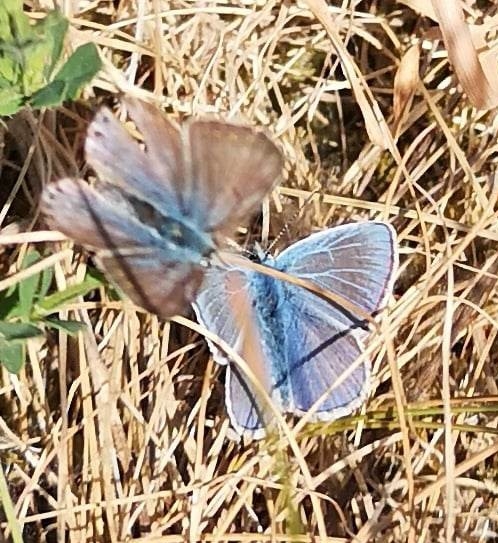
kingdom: Animalia
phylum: Arthropoda
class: Insecta
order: Lepidoptera
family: Lycaenidae
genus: Polyommatus
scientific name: Polyommatus icarus
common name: Almindelig blåfugl
